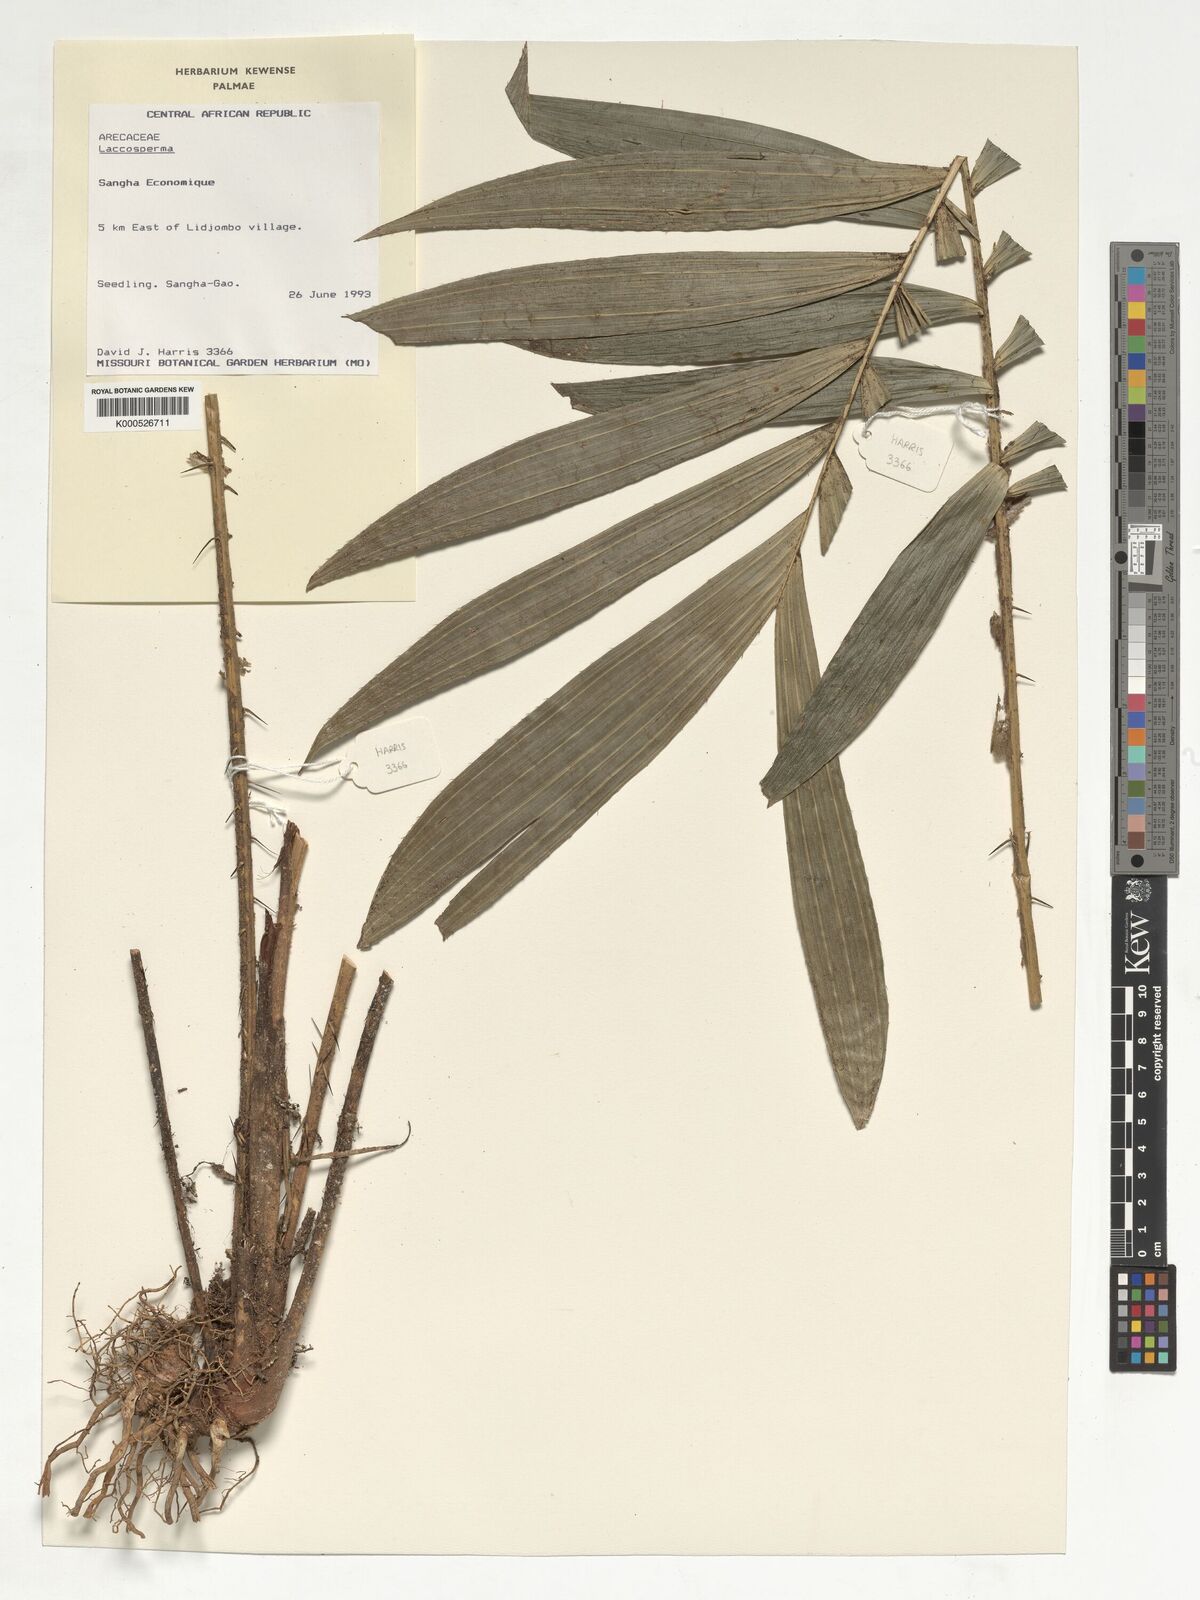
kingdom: Plantae
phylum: Tracheophyta
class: Liliopsida
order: Arecales
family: Arecaceae
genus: Laccosperma
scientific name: Laccosperma
